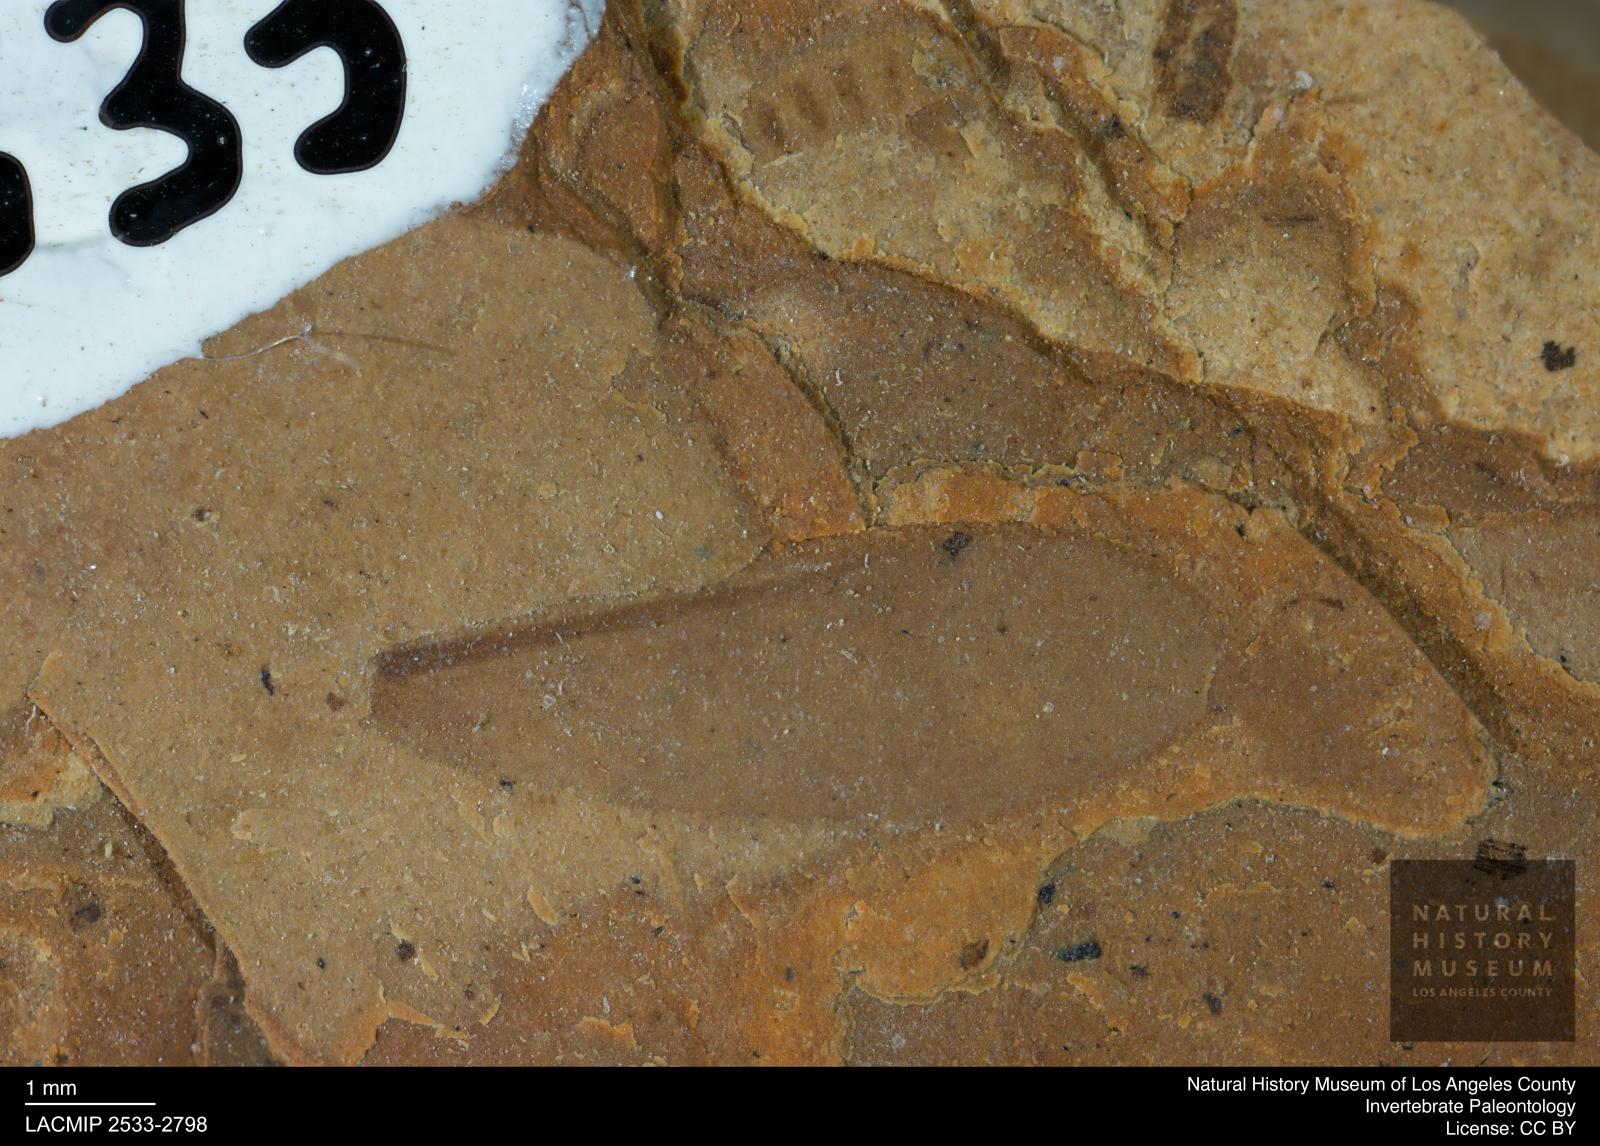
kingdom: Animalia
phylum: Arthropoda
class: Insecta
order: Blattodea
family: Kalotermitidae
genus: Kalotermes
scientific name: Kalotermes rhenanus
